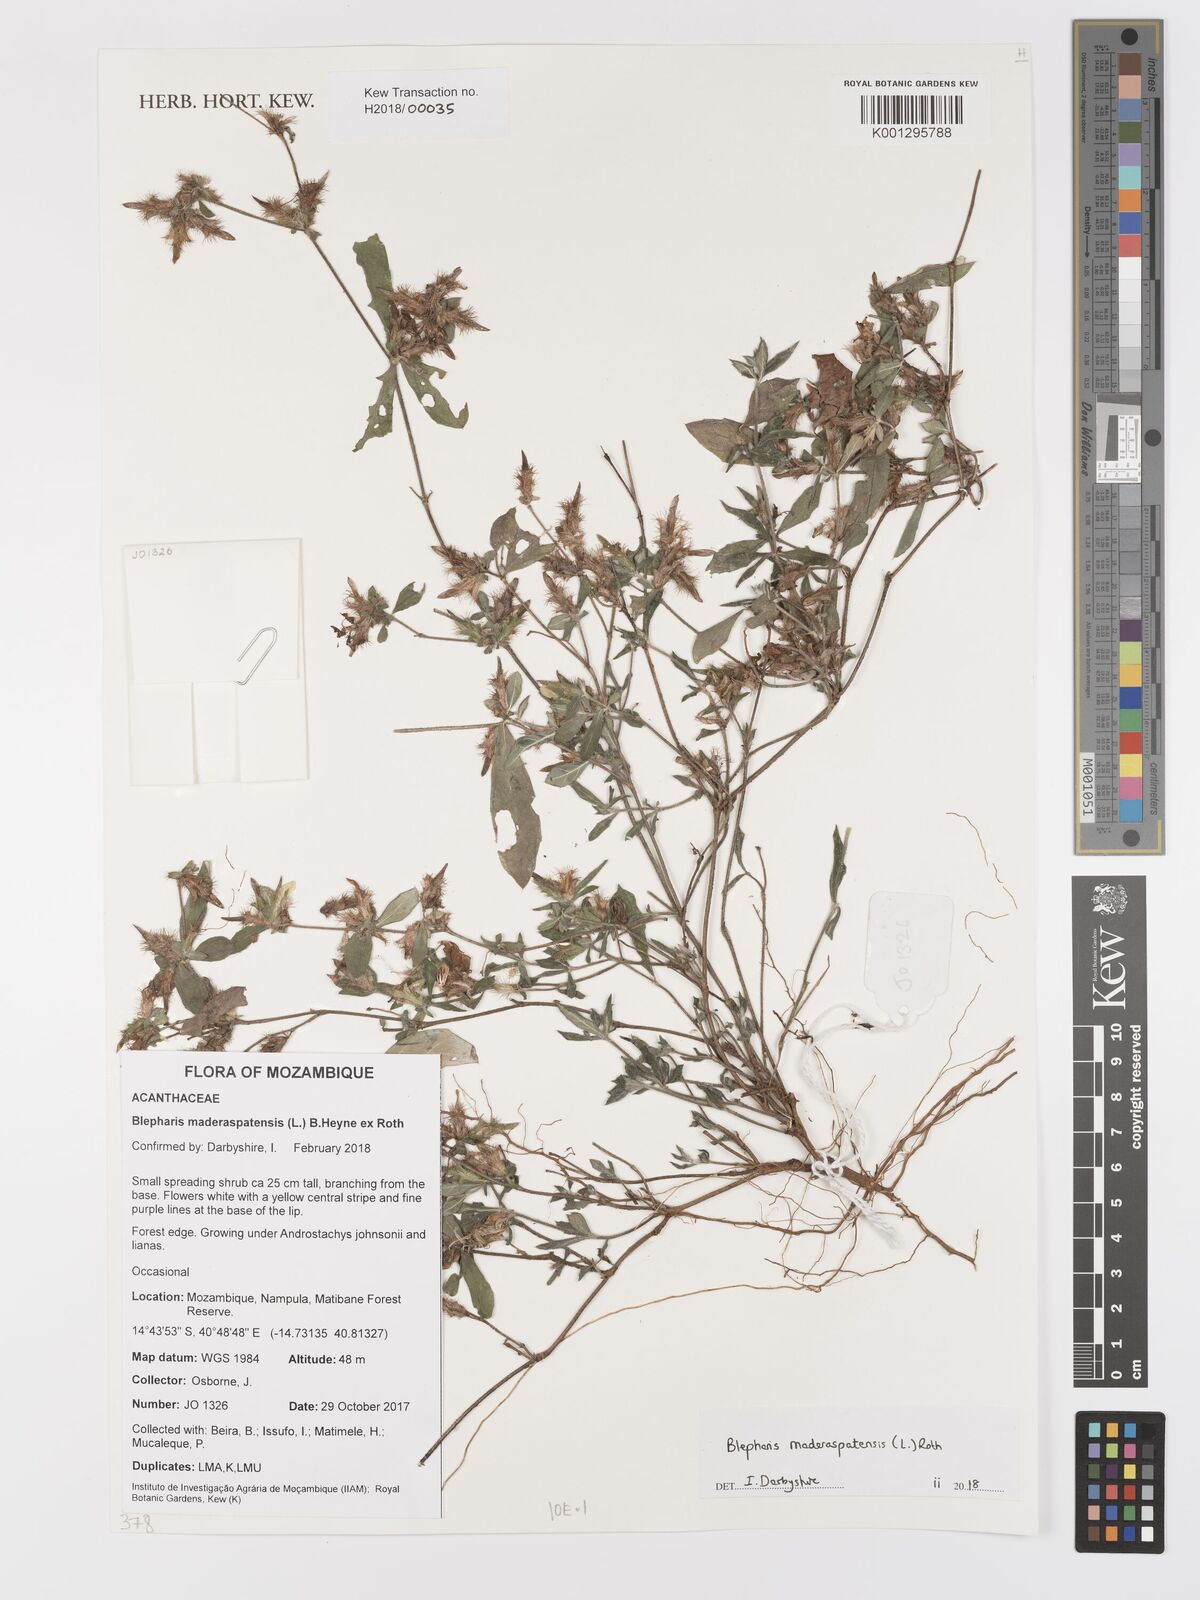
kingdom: Plantae
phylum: Tracheophyta
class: Magnoliopsida
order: Lamiales
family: Acanthaceae
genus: Blepharis
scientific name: Blepharis maderaspatensis
